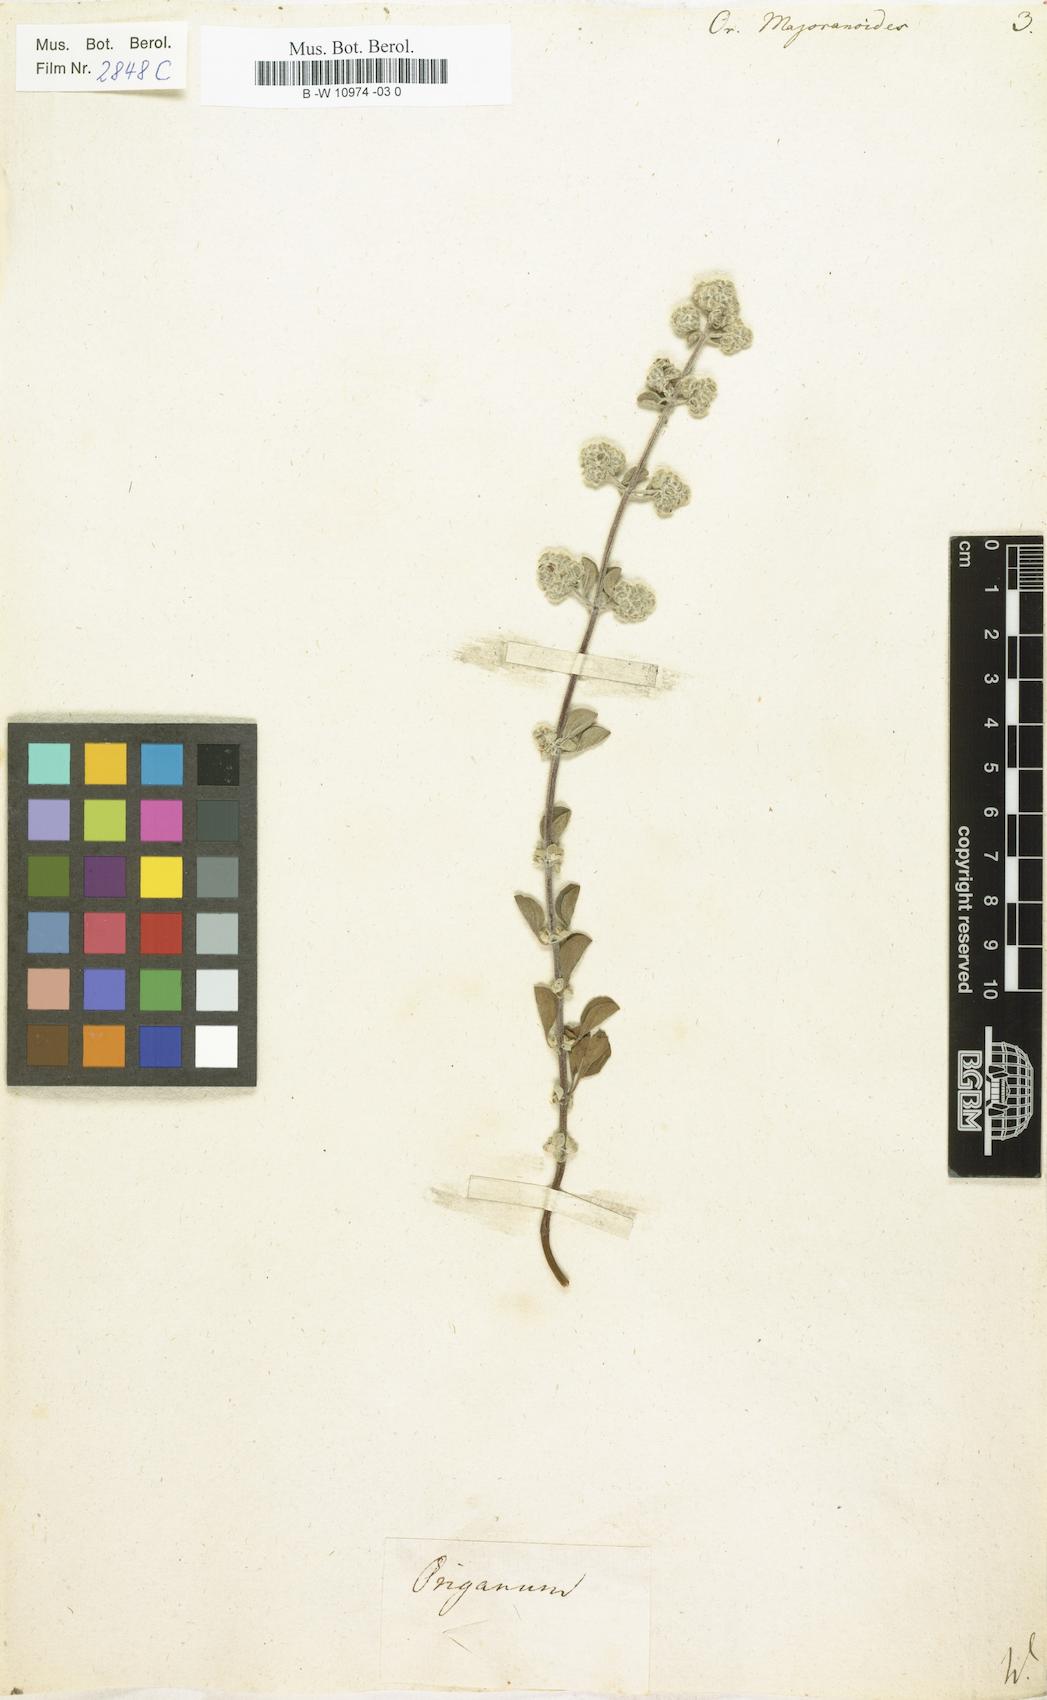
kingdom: Plantae
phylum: Tracheophyta
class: Magnoliopsida
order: Lamiales
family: Lamiaceae
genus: Origanum
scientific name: Origanum majorana
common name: Sweet marjoram
